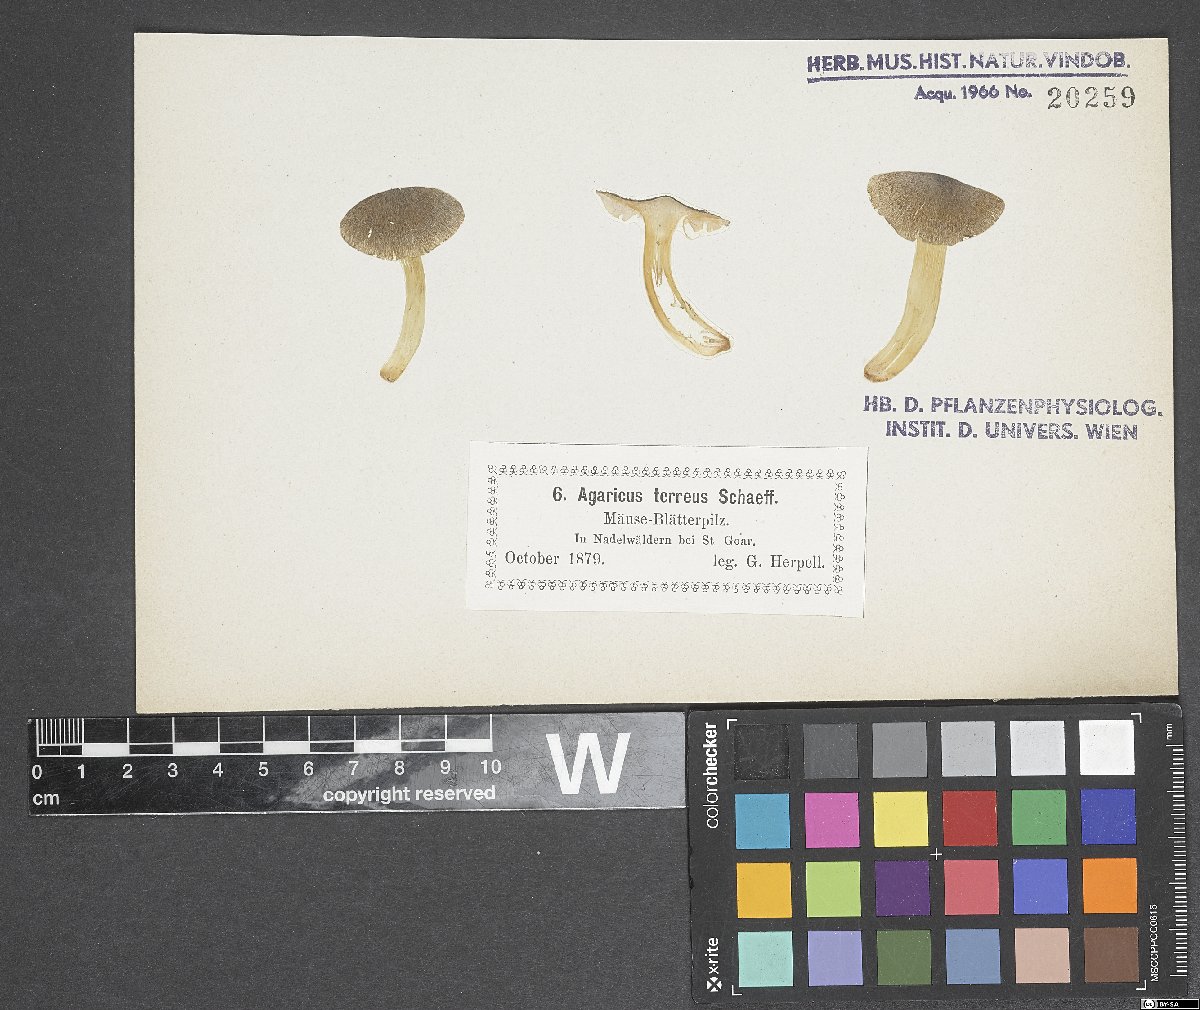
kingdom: Fungi
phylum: Basidiomycota
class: Agaricomycetes
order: Agaricales
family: Tricholomataceae
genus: Tricholoma
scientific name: Tricholoma terreum
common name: Grey knight
